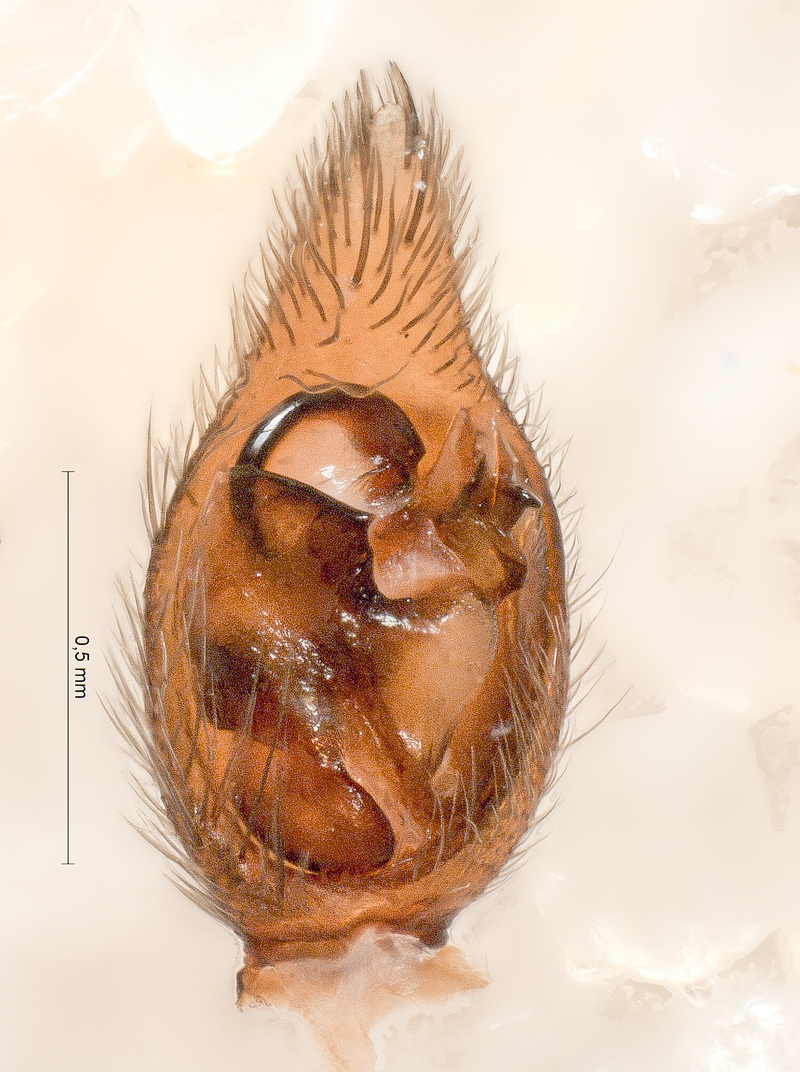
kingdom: Animalia
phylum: Arthropoda
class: Arachnida
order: Araneae
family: Lycosidae
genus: Xerolycosa
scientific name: Xerolycosa nemoralis
